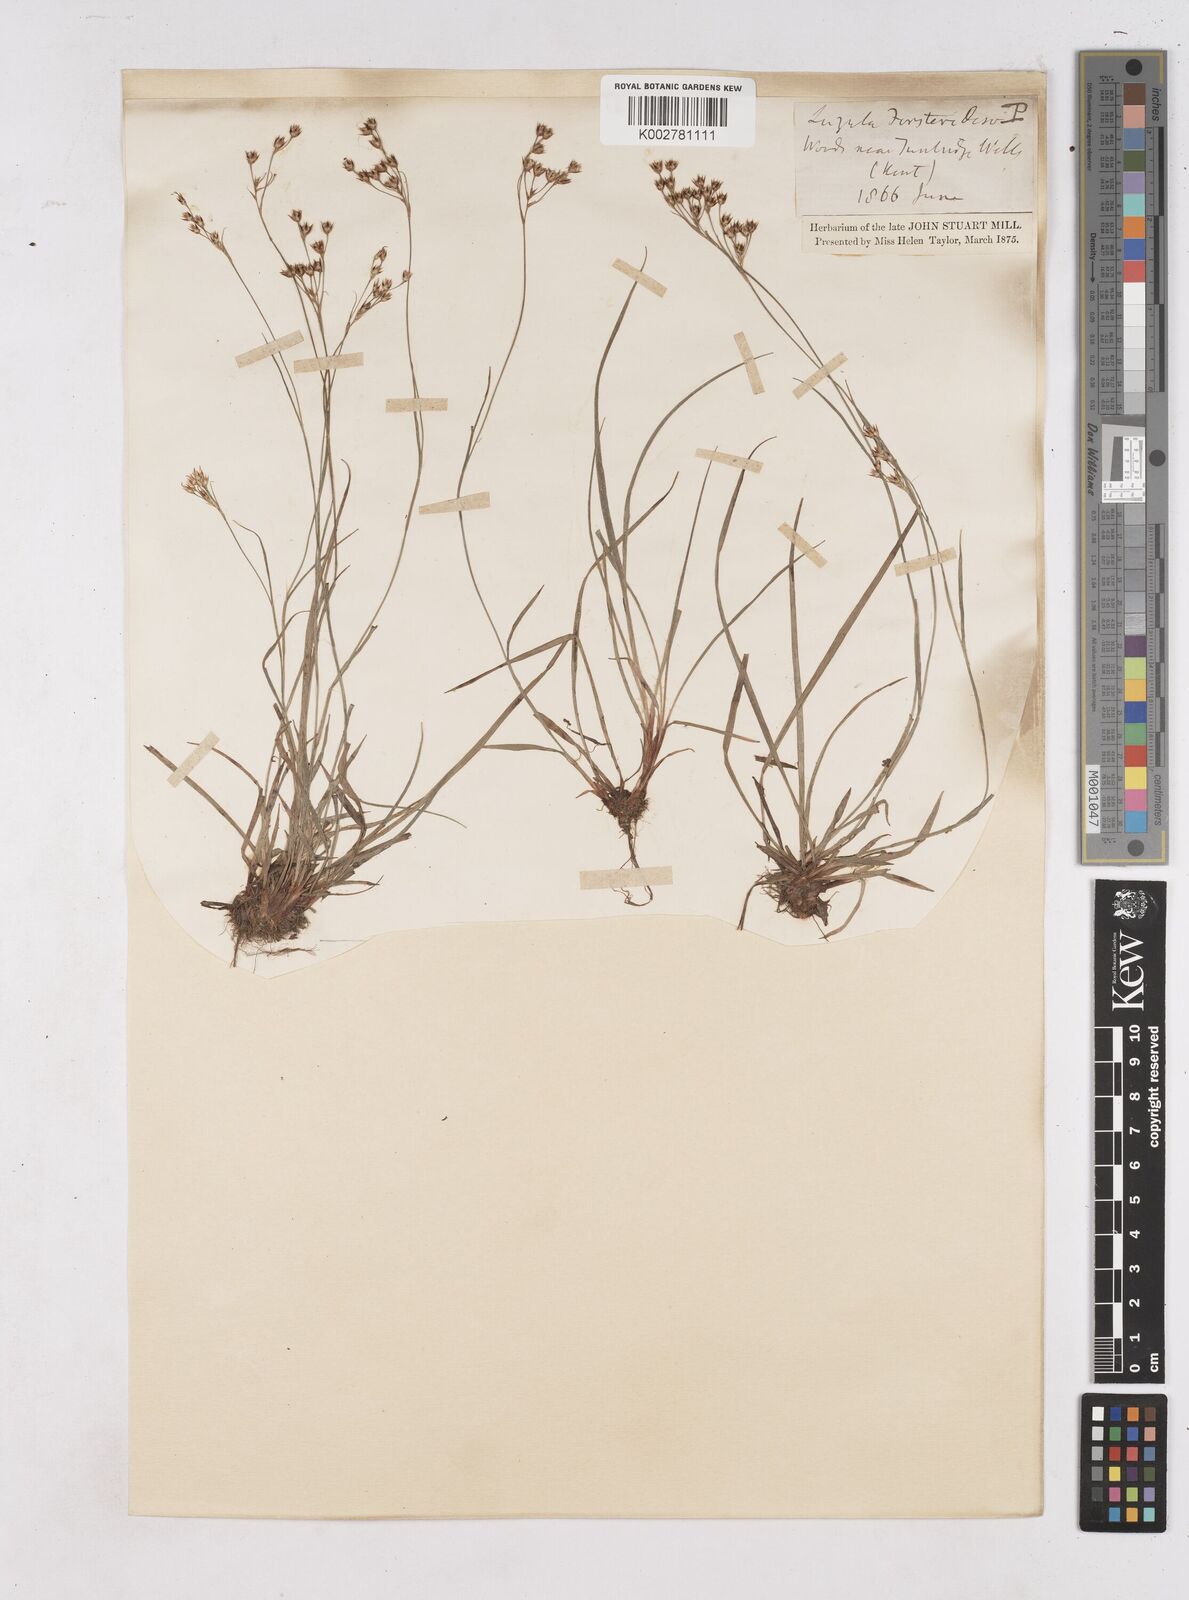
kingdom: Plantae
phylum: Tracheophyta
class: Liliopsida
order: Poales
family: Juncaceae
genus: Luzula
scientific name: Luzula forsteri
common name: Southern wood-rush
